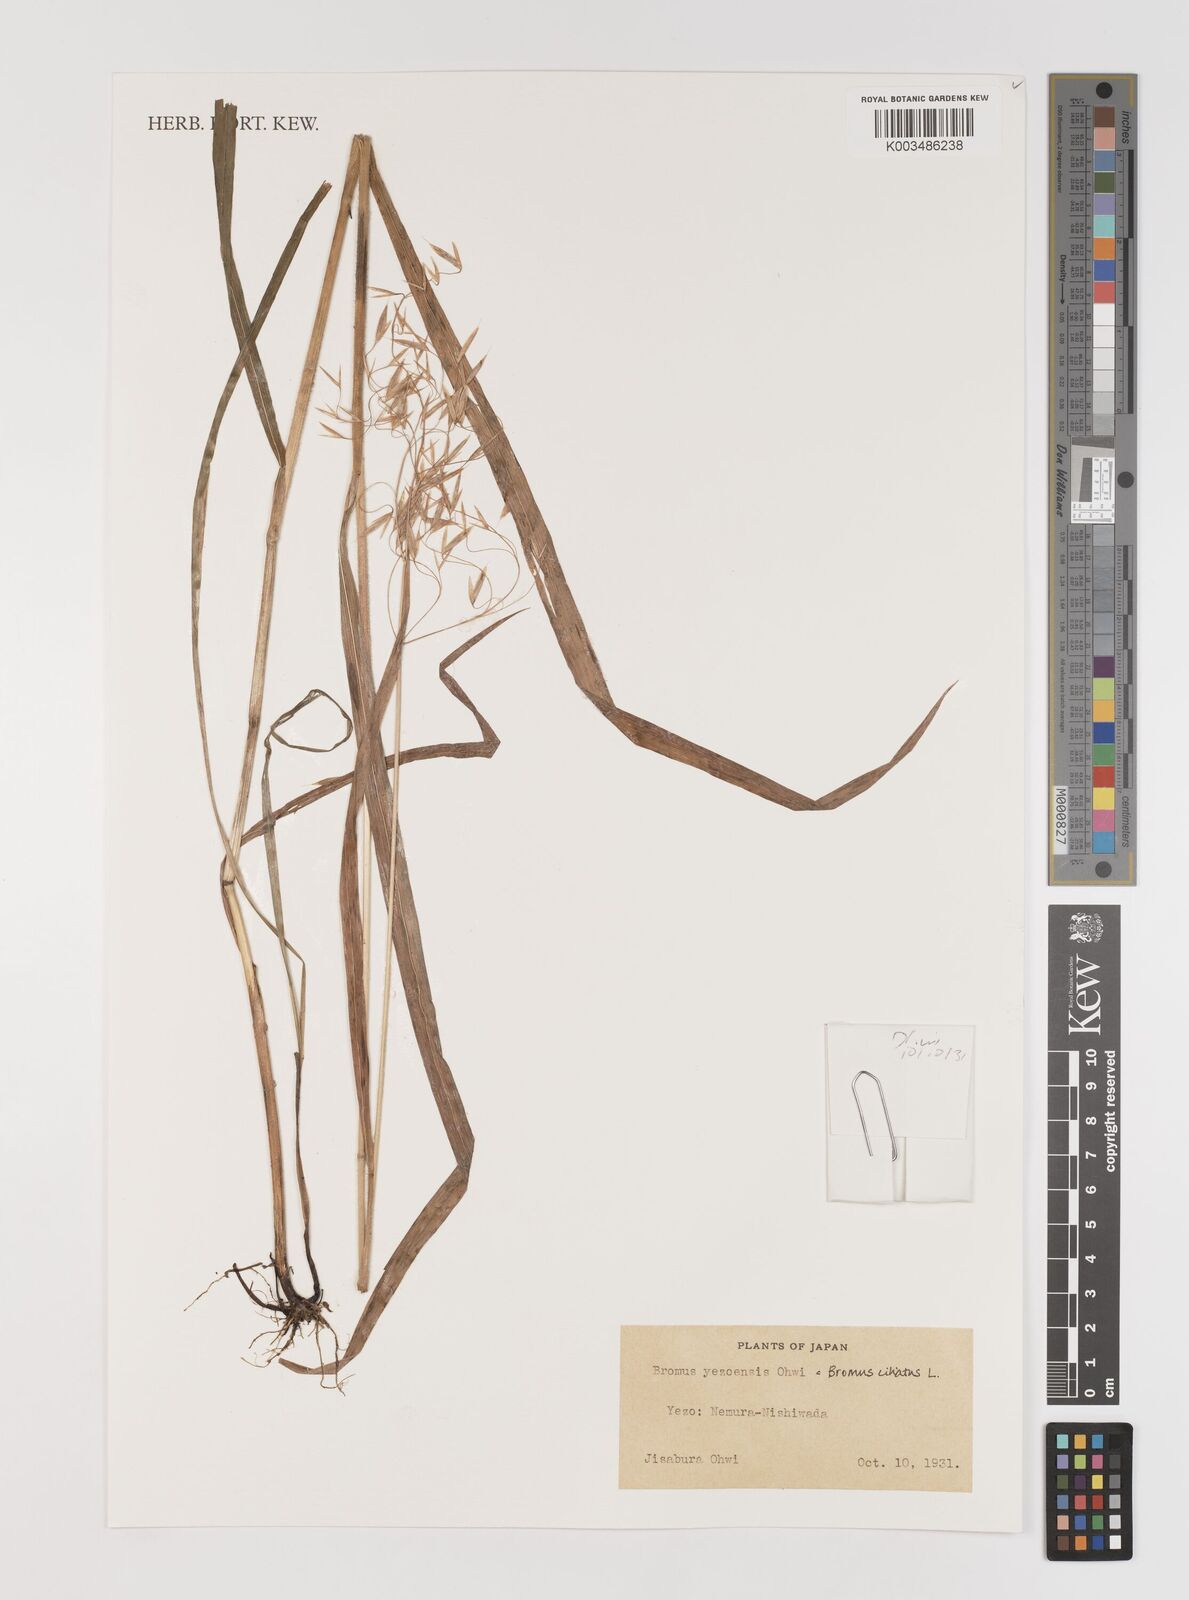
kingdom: Plantae
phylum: Tracheophyta
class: Liliopsida
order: Poales
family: Poaceae
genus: Bromus
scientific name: Bromus ciliatus
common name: Fringe brome
